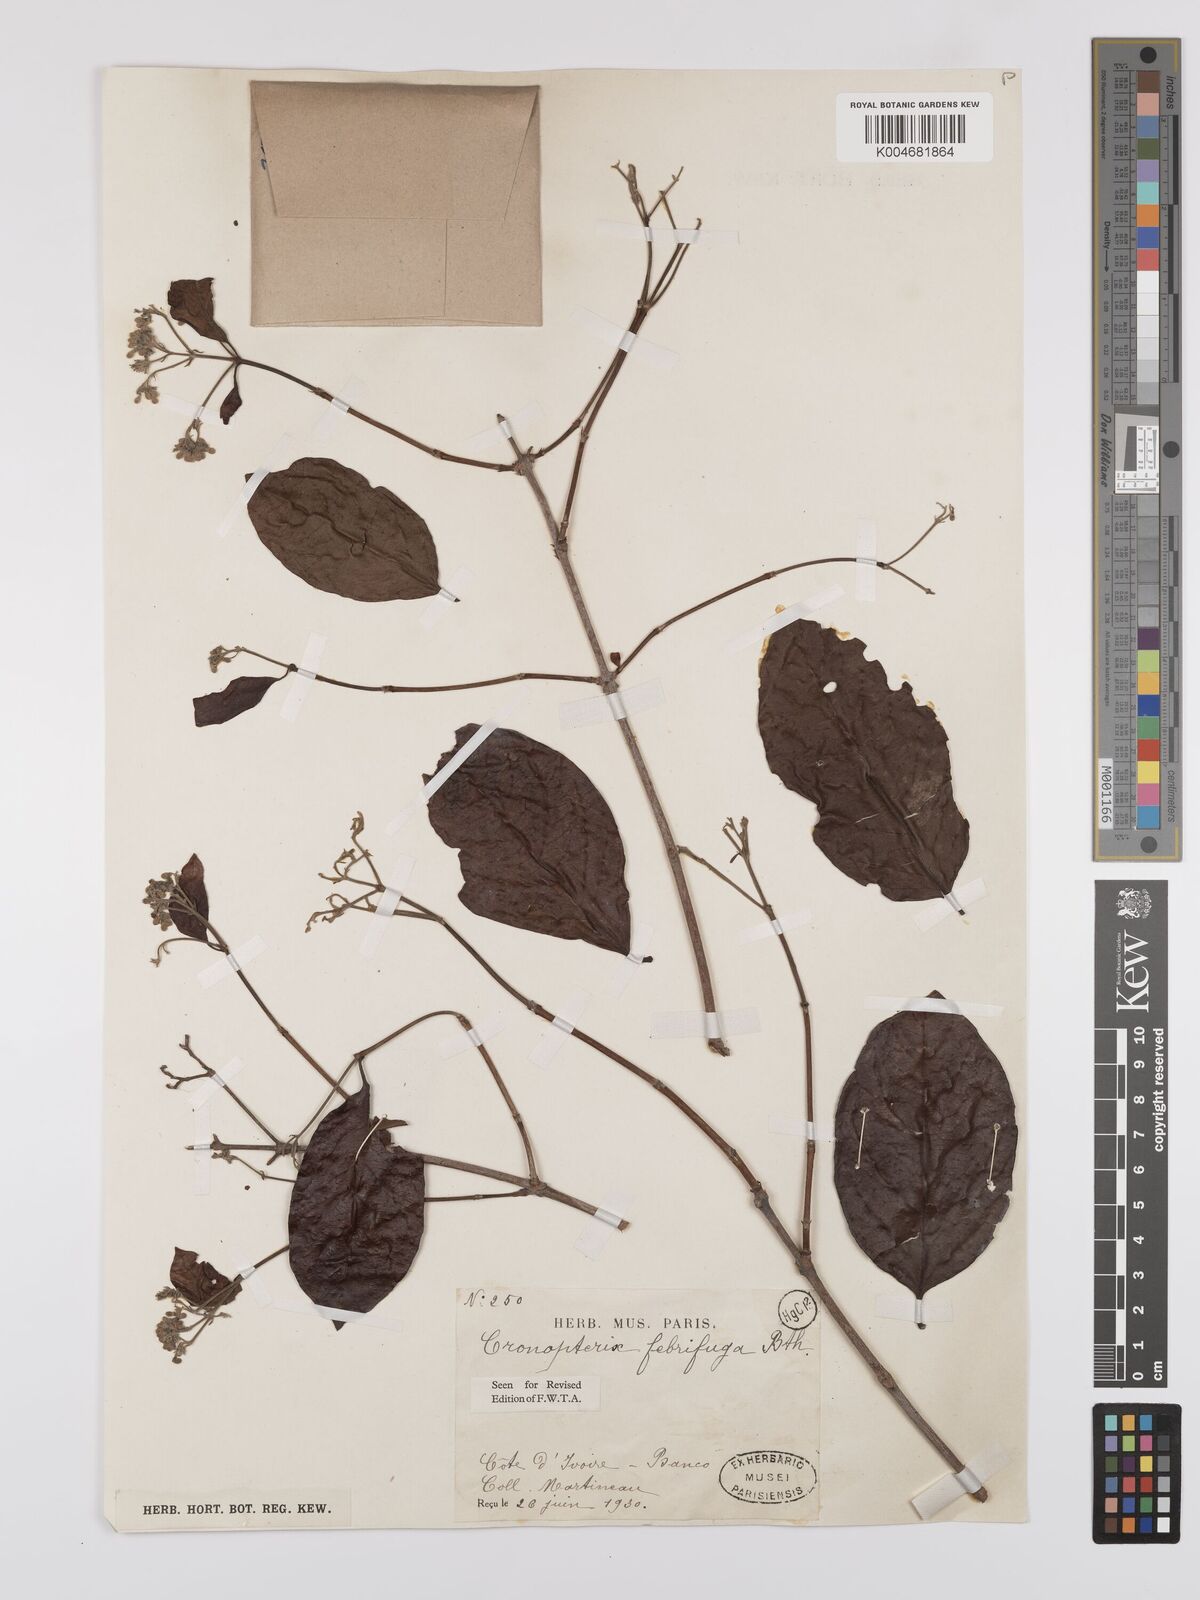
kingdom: Plantae
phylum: Tracheophyta
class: Magnoliopsida
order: Gentianales
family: Rubiaceae
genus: Crossopteryx
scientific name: Crossopteryx febrifuga
